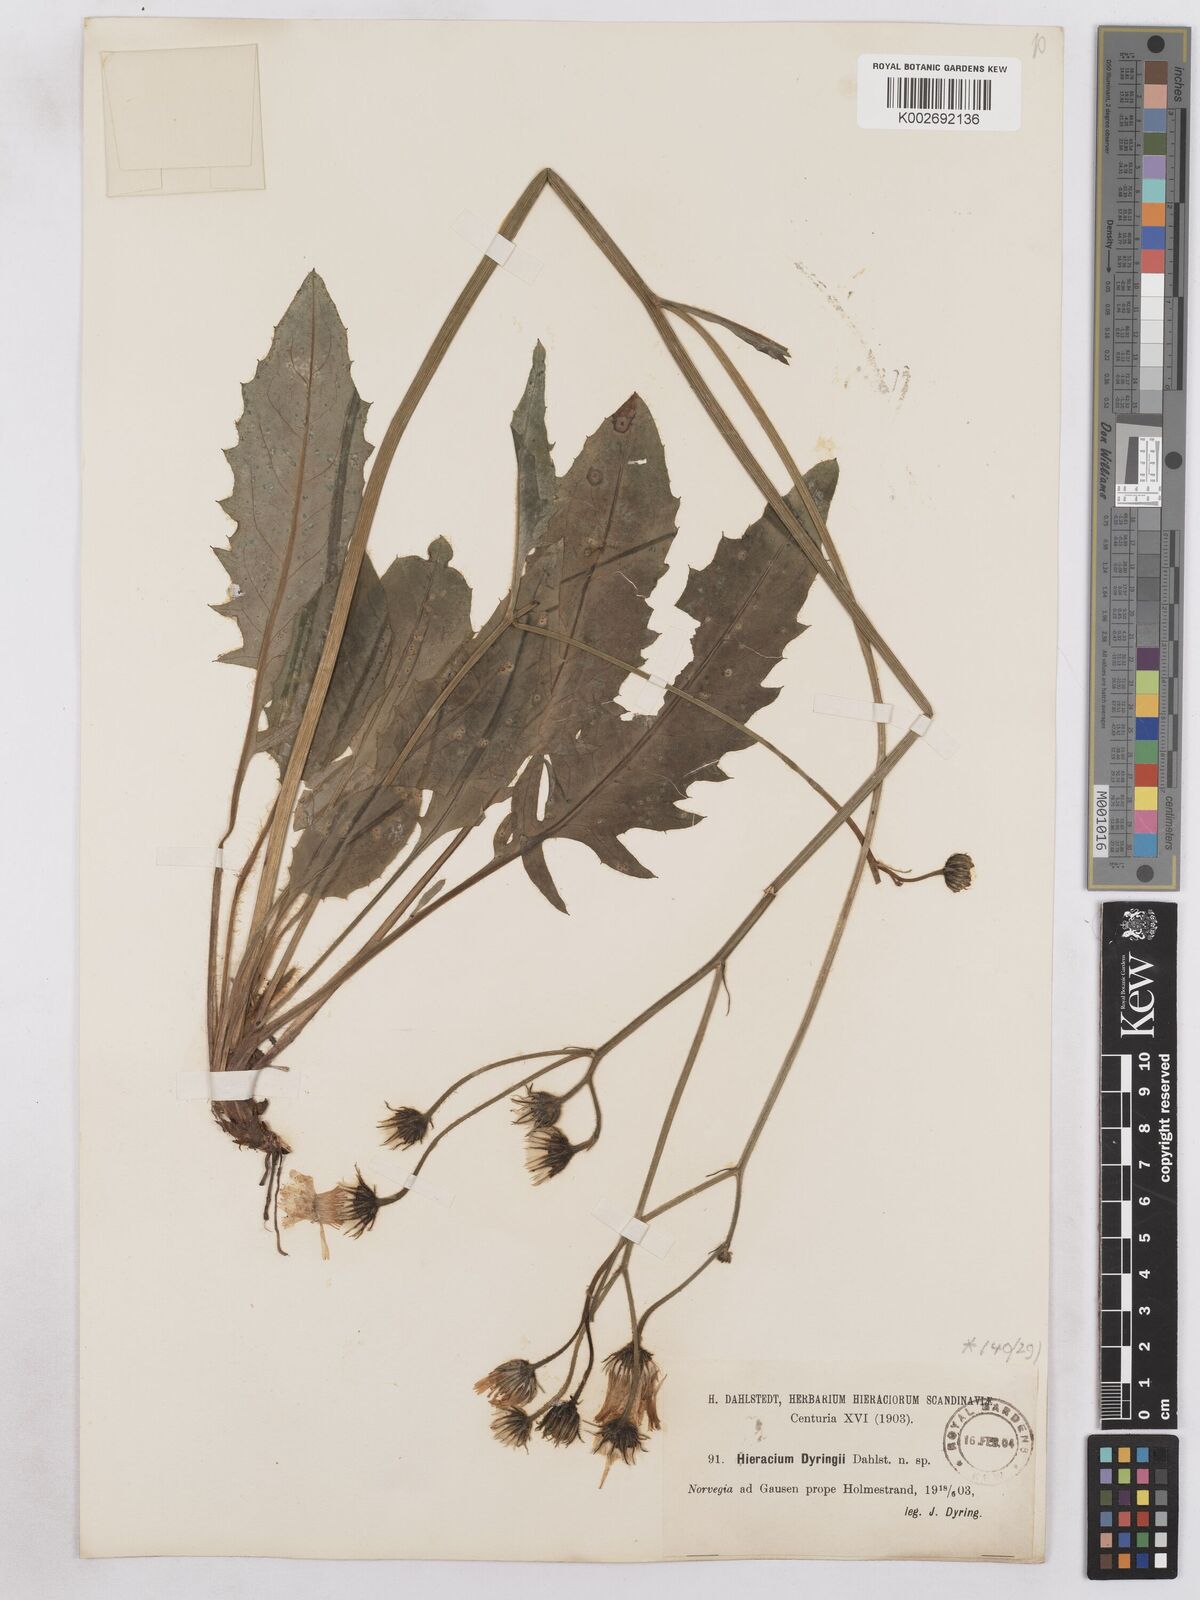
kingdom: Plantae
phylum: Tracheophyta
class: Magnoliopsida
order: Asterales
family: Asteraceae
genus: Hieracium
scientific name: Hieracium dyringii
